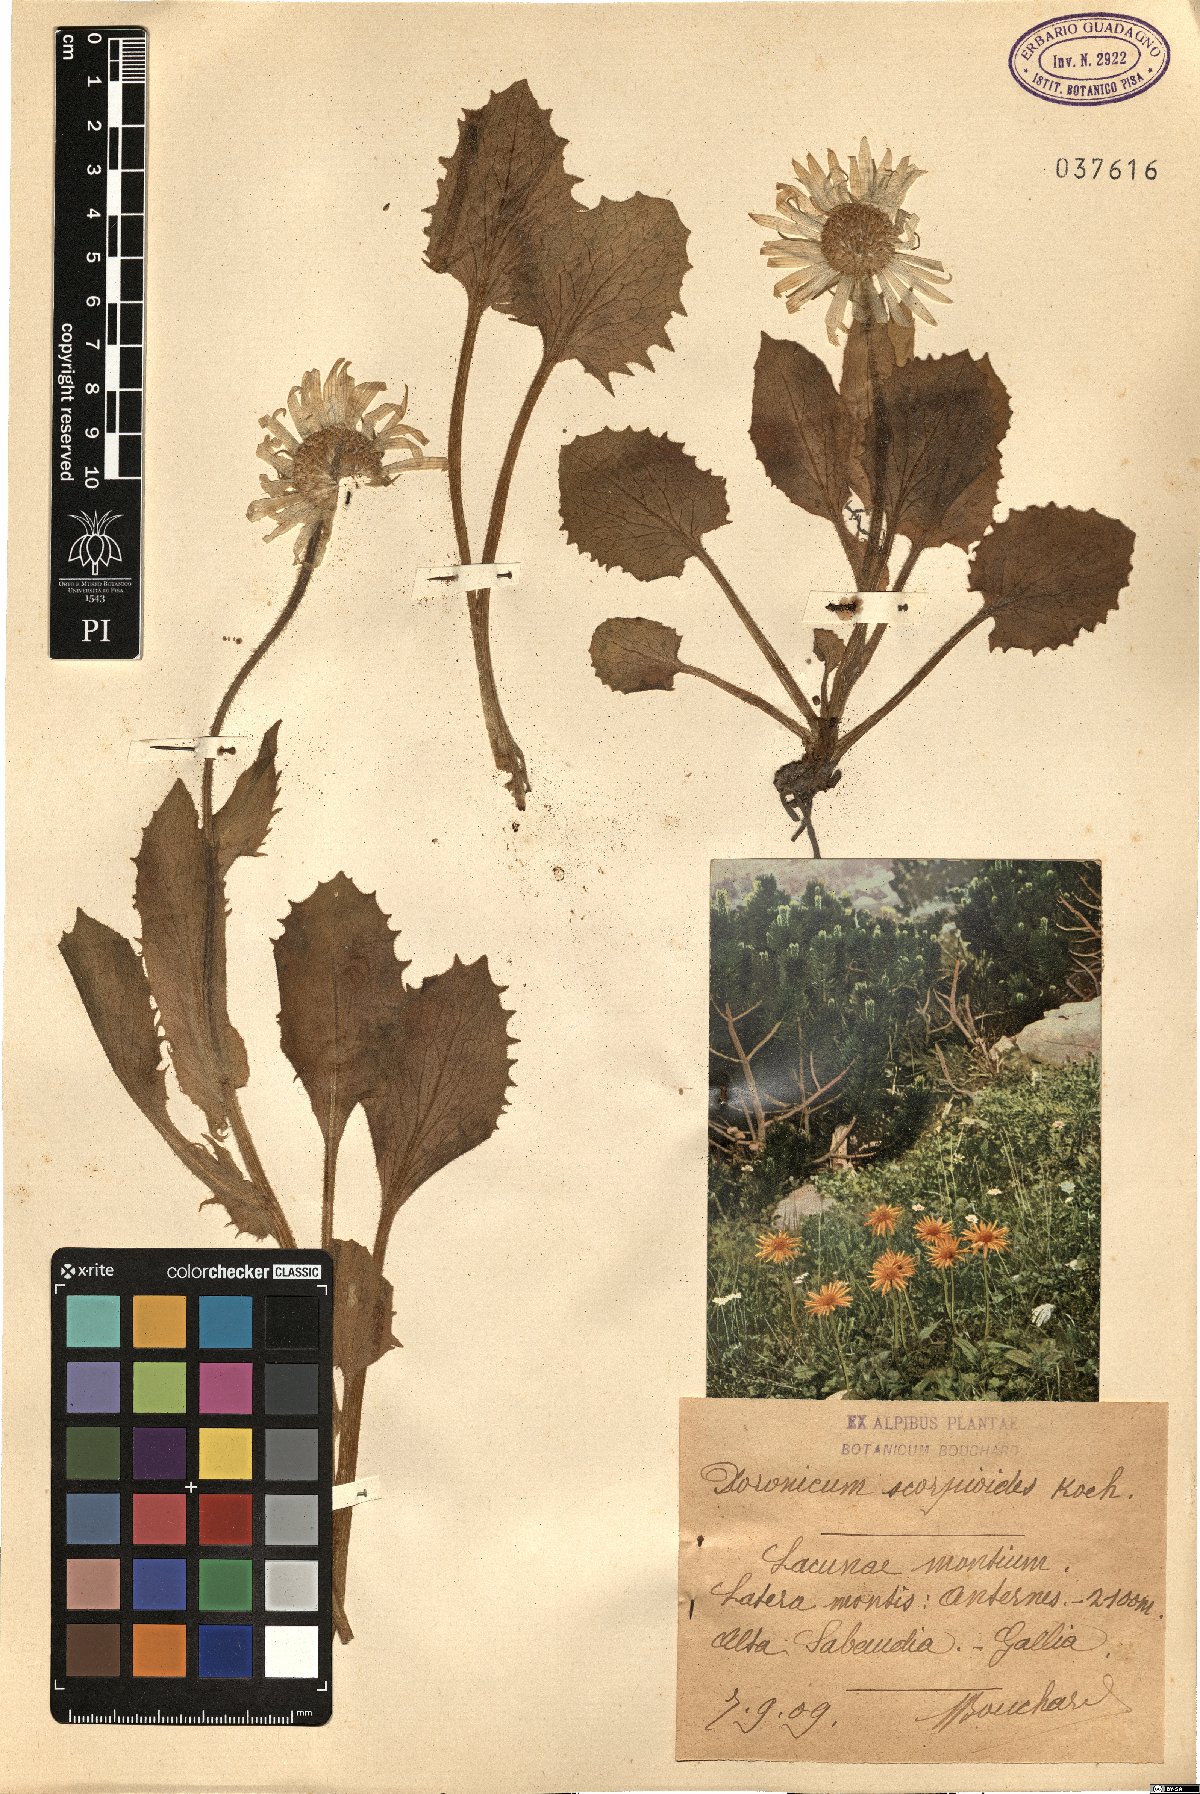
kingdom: Plantae
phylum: Tracheophyta
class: Magnoliopsida
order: Asterales
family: Asteraceae
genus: Doronicum
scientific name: Doronicum grandiflorum
